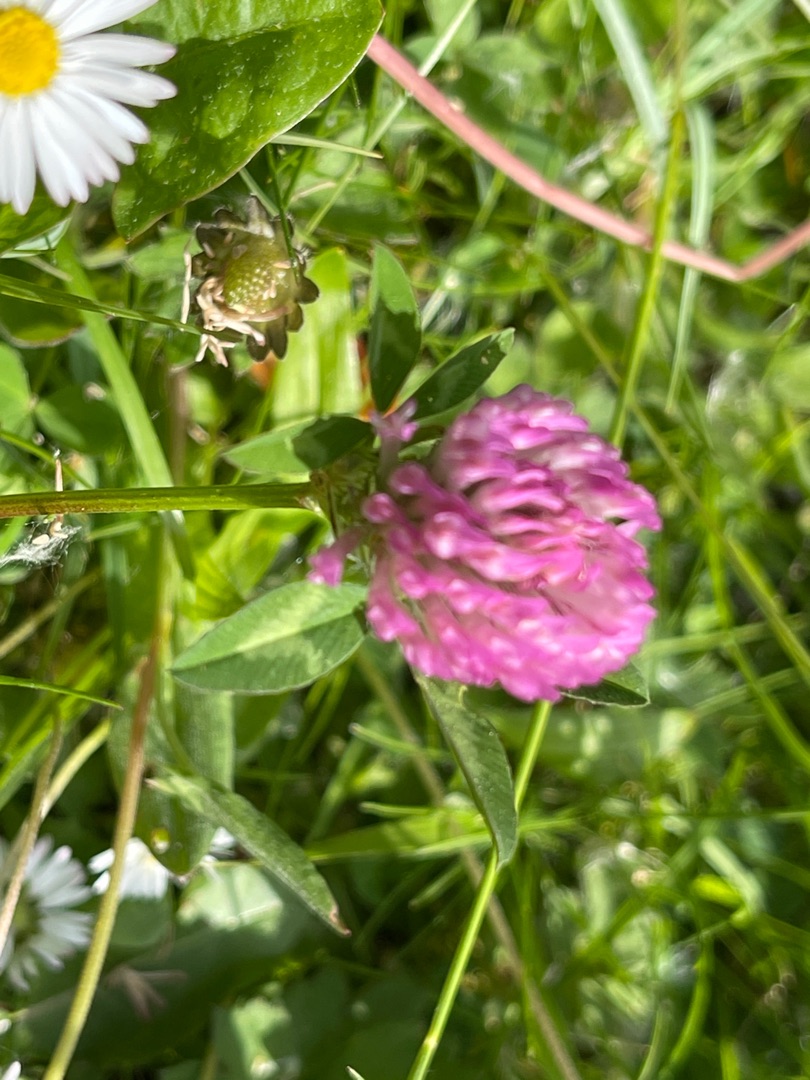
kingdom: Plantae
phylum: Tracheophyta
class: Magnoliopsida
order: Fabales
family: Fabaceae
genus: Trifolium
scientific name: Trifolium pratense
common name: Rød-kløver
